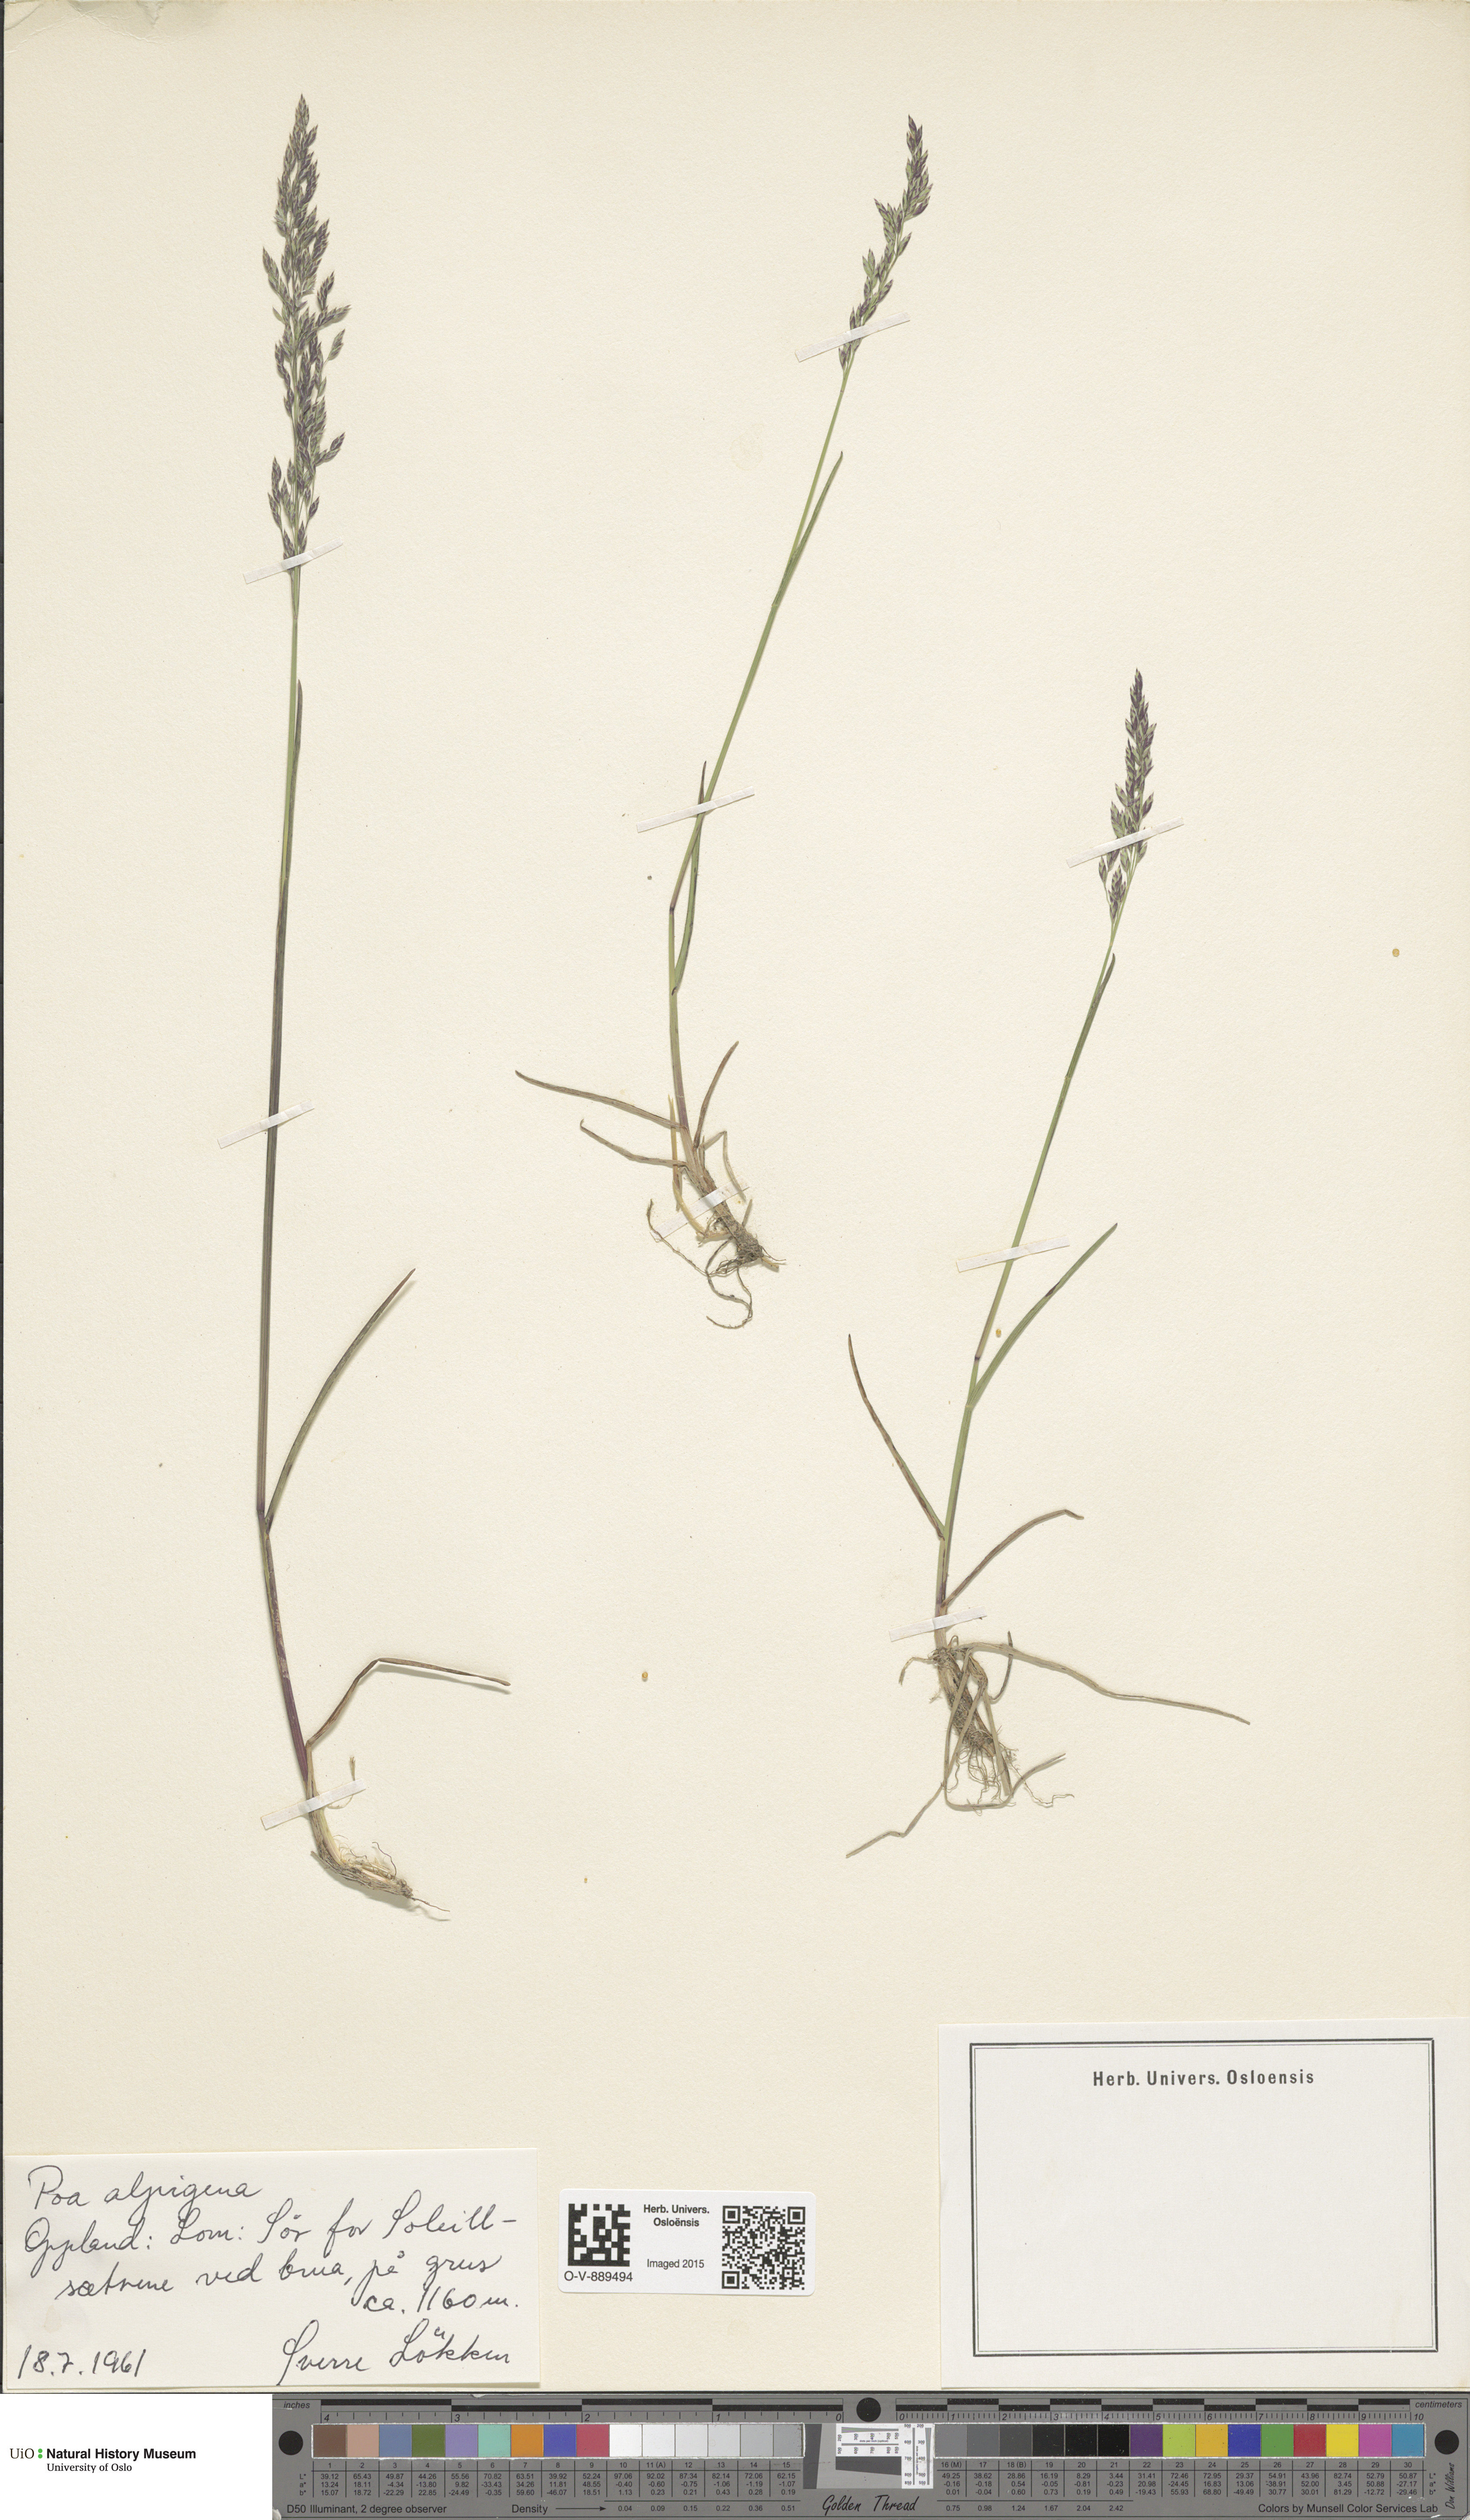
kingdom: Plantae
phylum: Tracheophyta
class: Liliopsida
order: Poales
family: Poaceae
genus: Poa
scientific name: Poa alpigena
